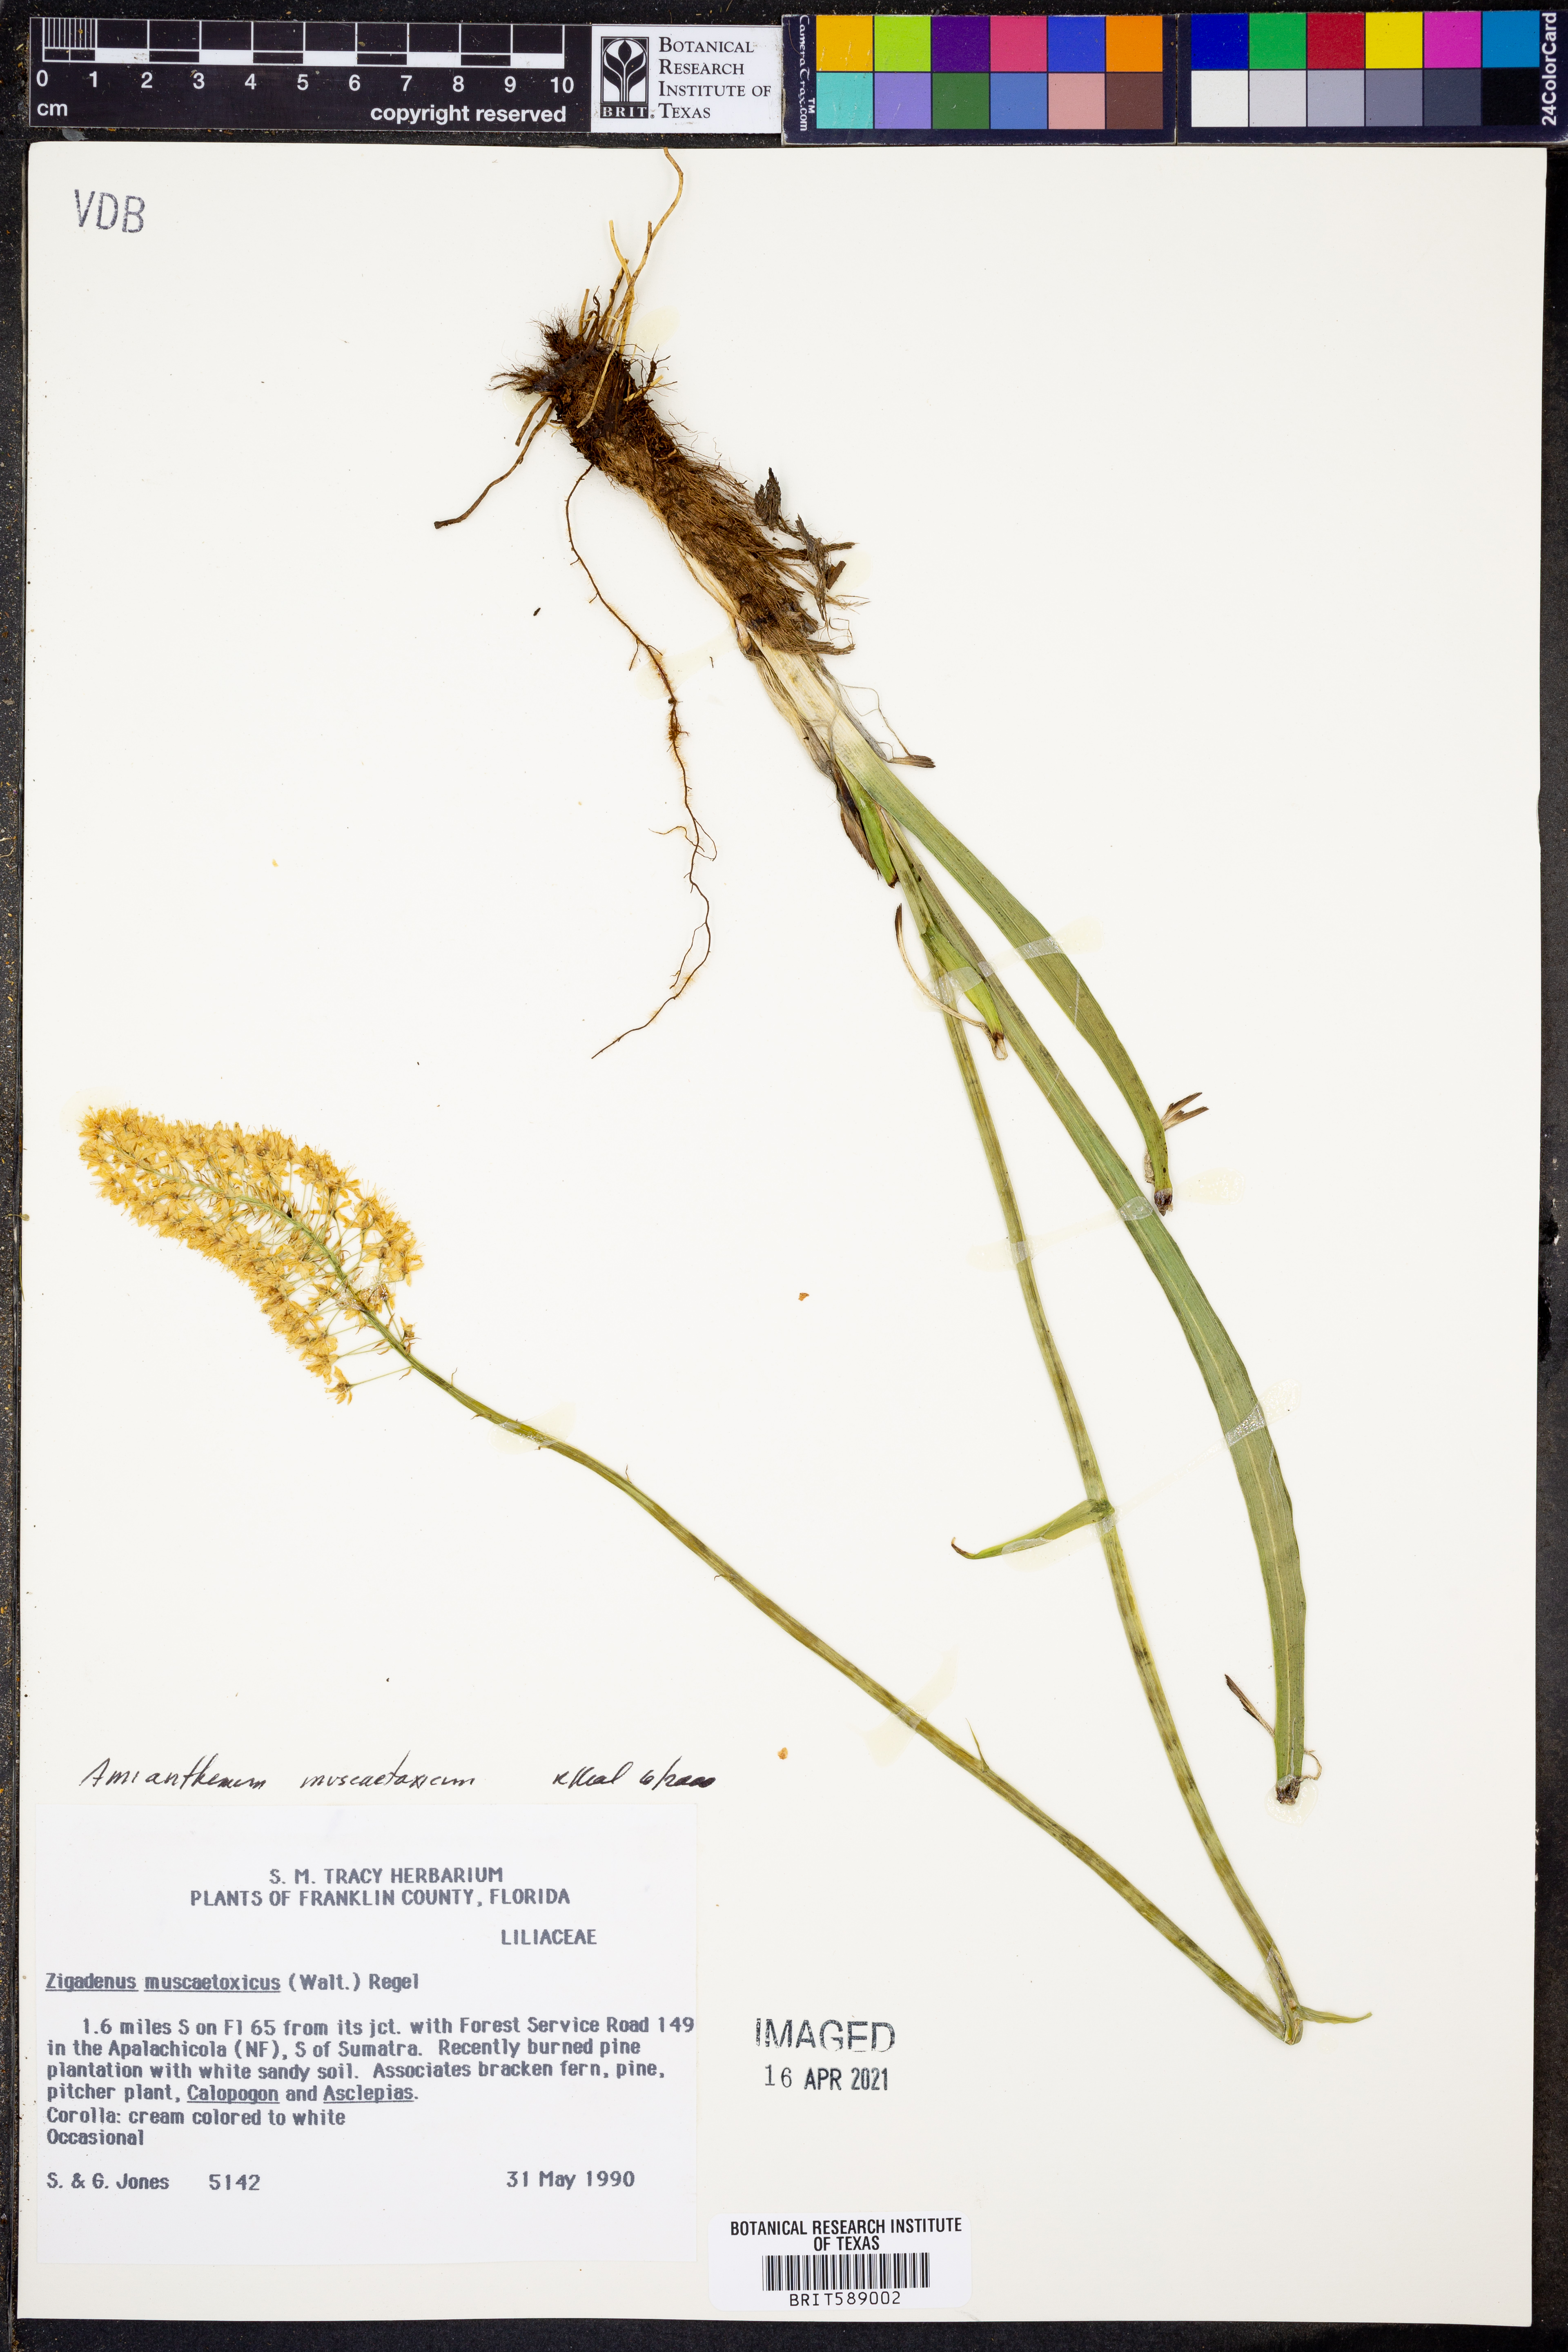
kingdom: Plantae
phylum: Tracheophyta
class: Liliopsida
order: Liliales
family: Melanthiaceae
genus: Amianthium
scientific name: Amianthium muscitoxicum
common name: Fly-poison
